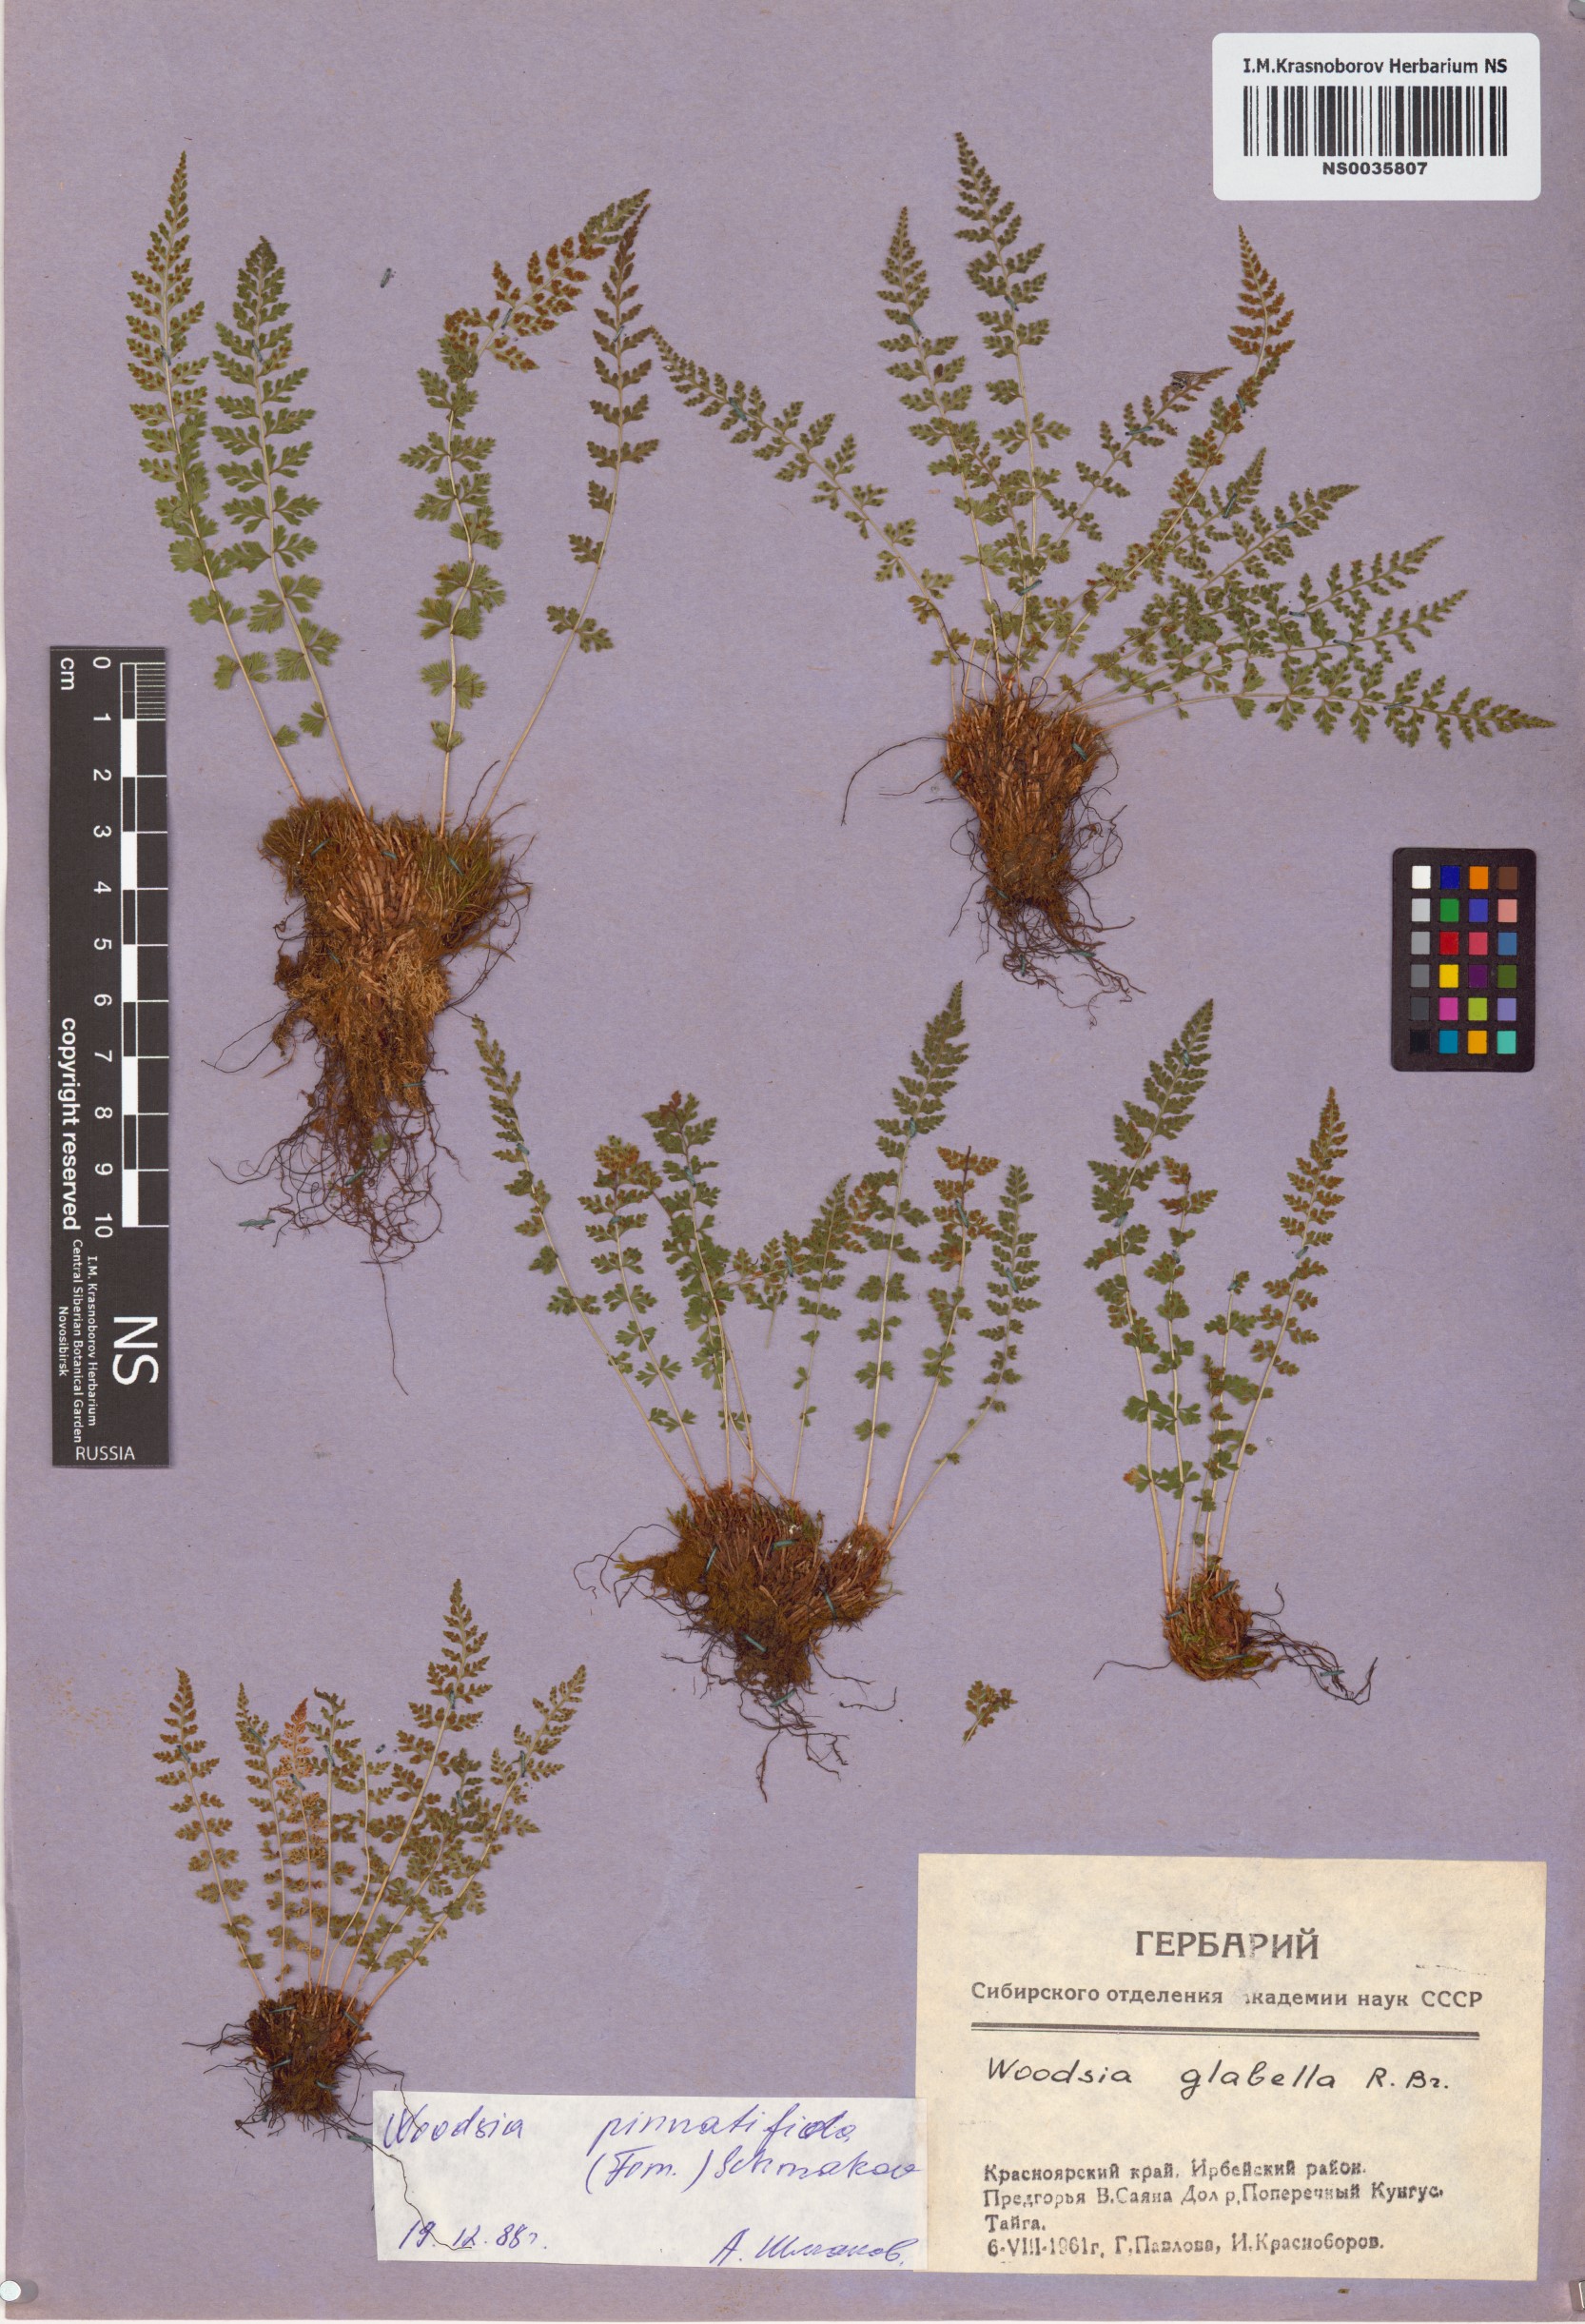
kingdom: Plantae
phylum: Tracheophyta
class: Polypodiopsida
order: Polypodiales
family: Woodsiaceae
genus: Woodsia
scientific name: Woodsia pulchella
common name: Graceful woodsia
